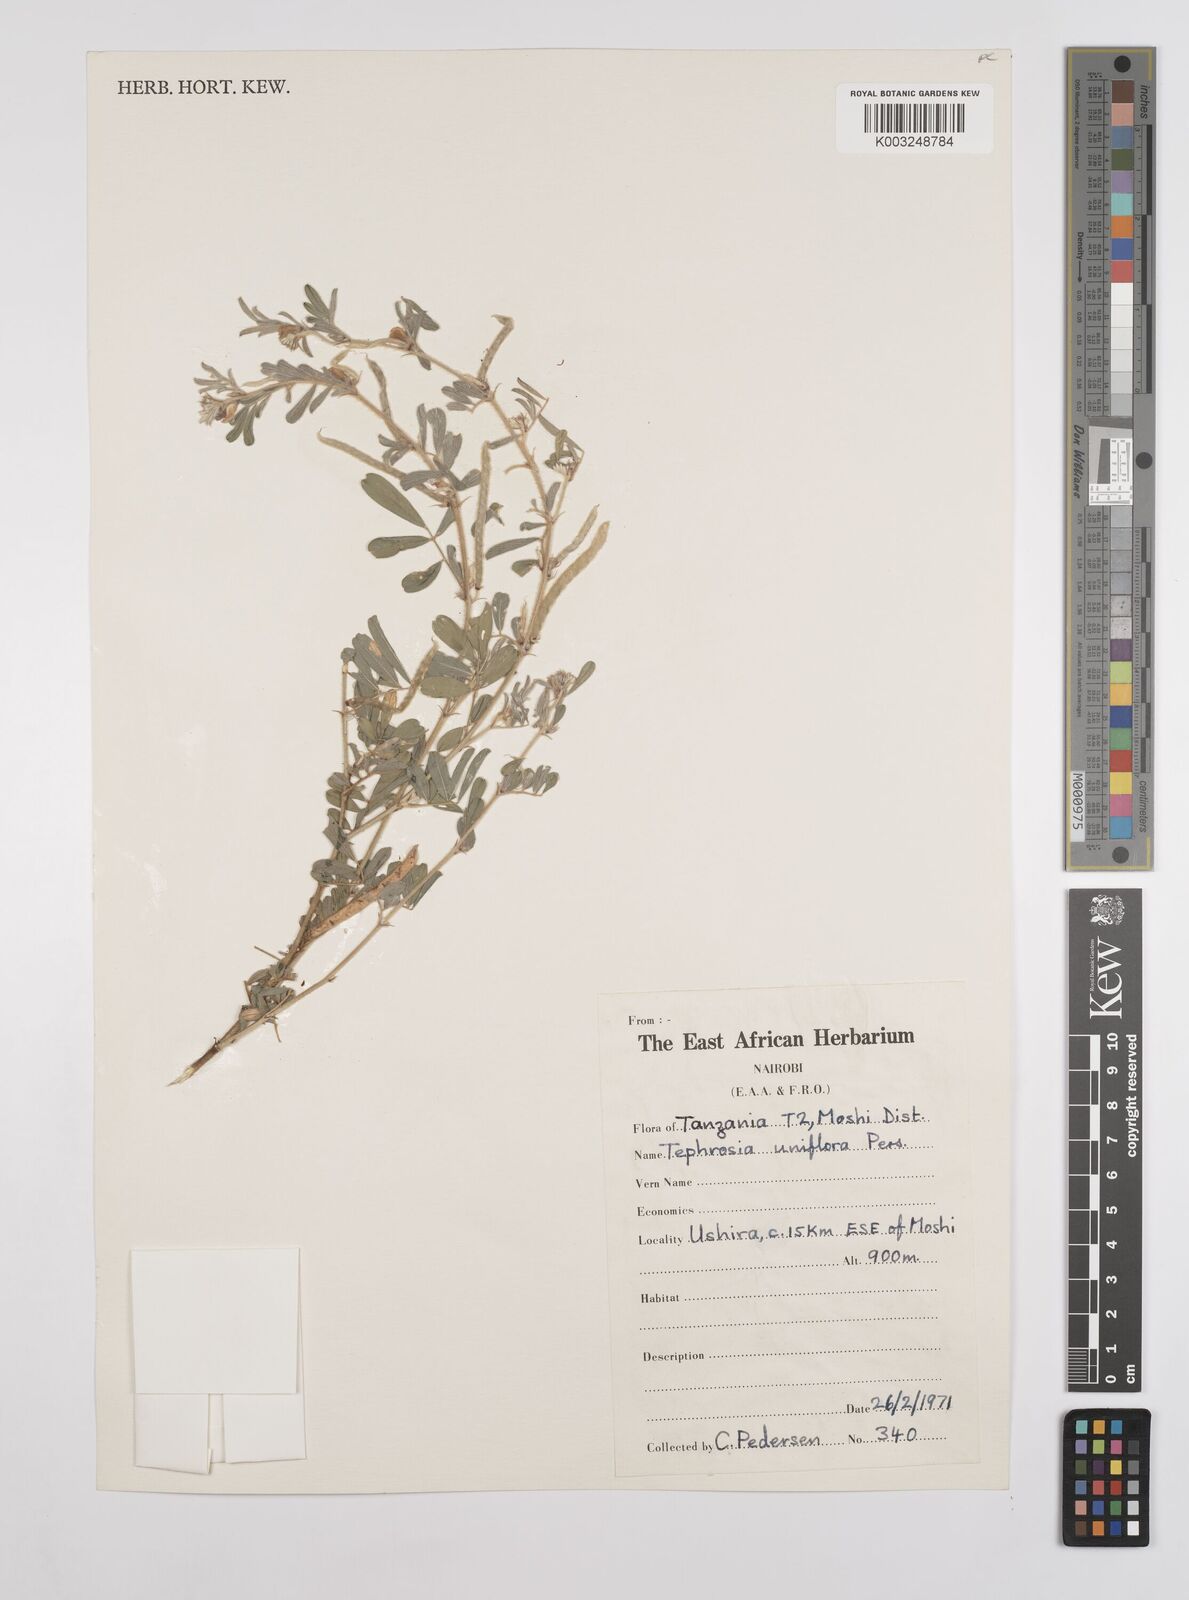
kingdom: Plantae
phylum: Tracheophyta
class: Magnoliopsida
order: Fabales
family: Fabaceae
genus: Tephrosia
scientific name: Tephrosia uniflora
